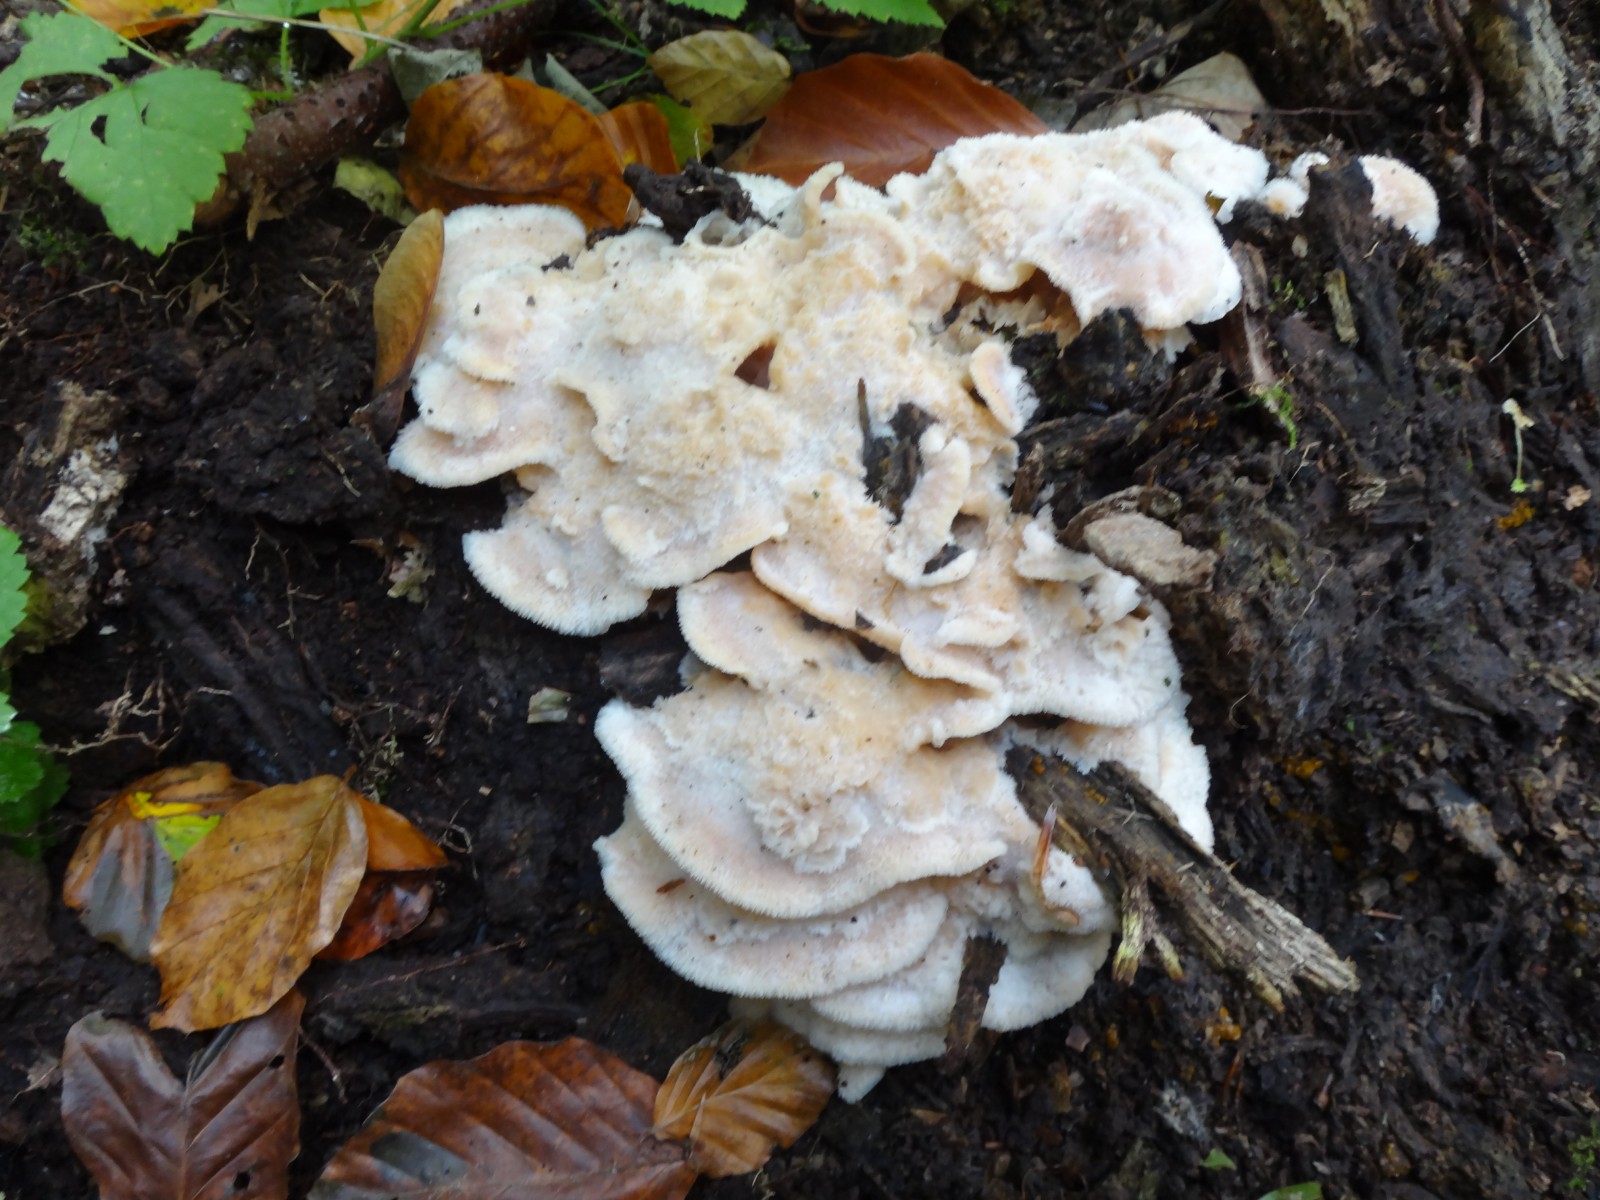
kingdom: Fungi
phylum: Basidiomycota
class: Agaricomycetes
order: Polyporales
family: Meruliaceae
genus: Phlebia
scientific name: Phlebia tremellosa
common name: bævrende åresvamp
